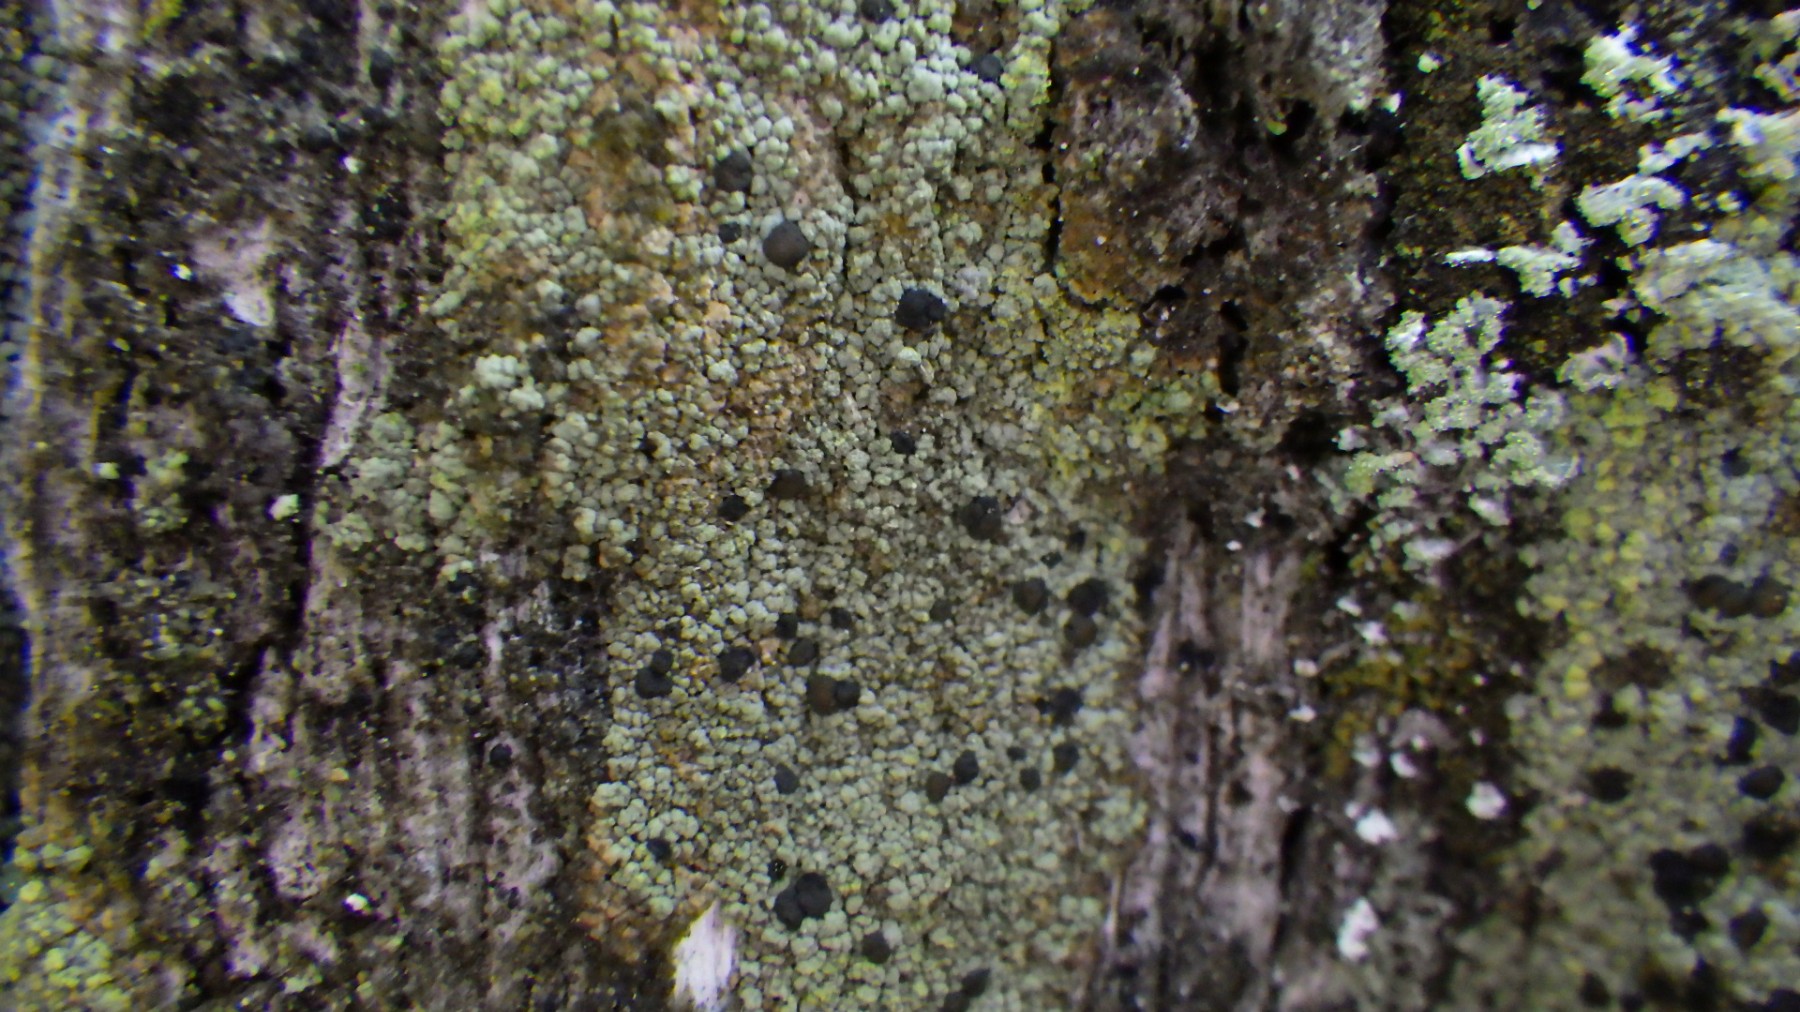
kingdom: Fungi
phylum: Ascomycota
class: Lecanoromycetes
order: Baeomycetales
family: Trapeliaceae
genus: Trapeliopsis
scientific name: Trapeliopsis granulosa
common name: forskelligfarvet skivelav
